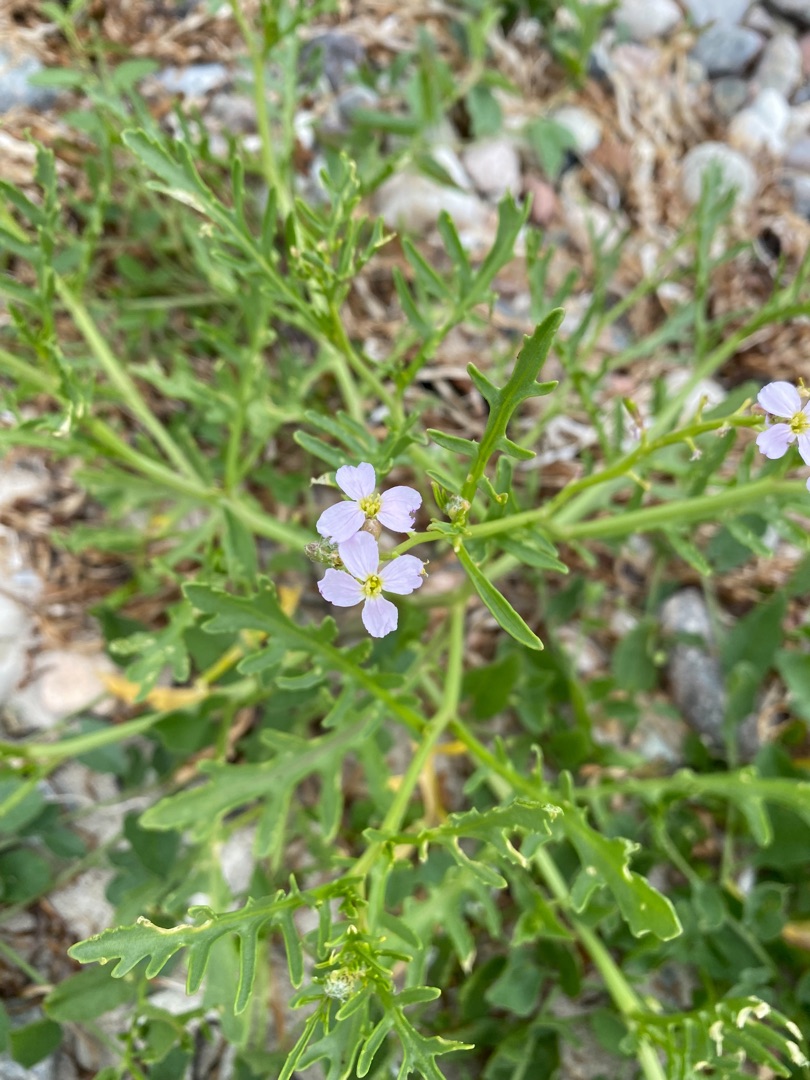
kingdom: Plantae
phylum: Tracheophyta
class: Magnoliopsida
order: Brassicales
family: Brassicaceae
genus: Cakile
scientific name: Cakile maritima
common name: Strandsennep
